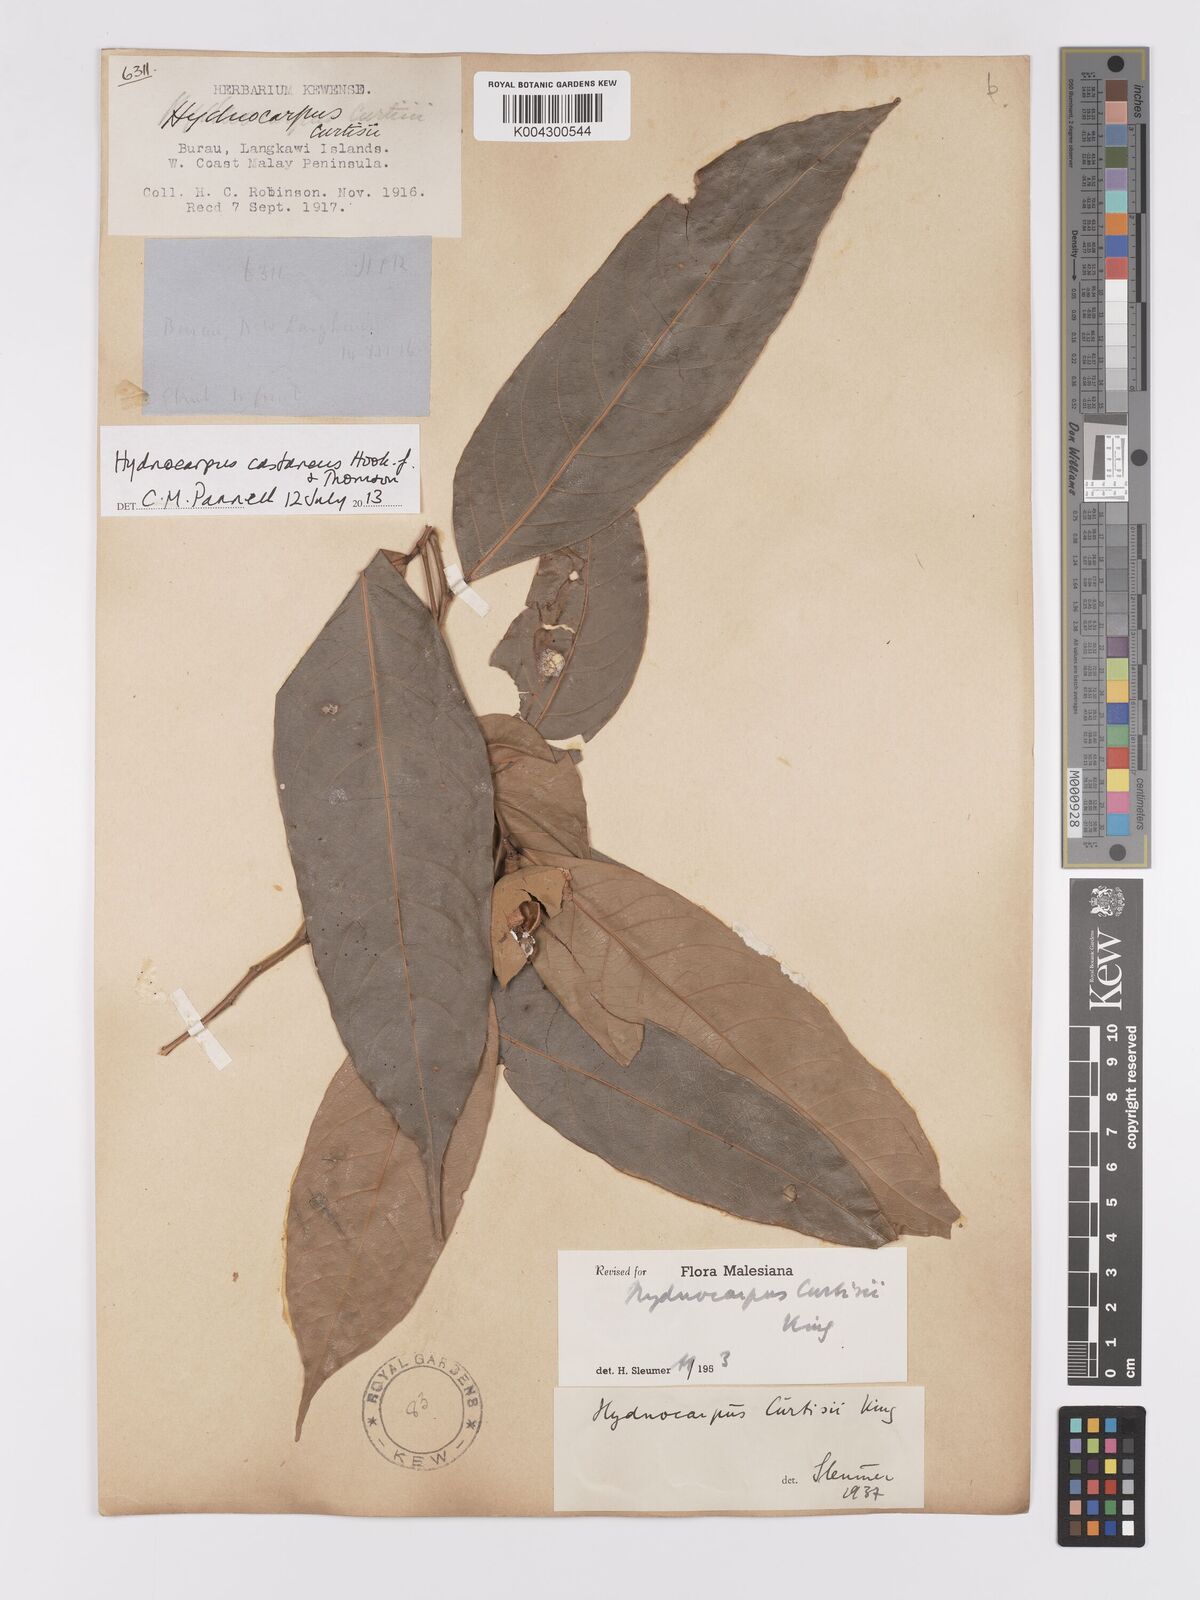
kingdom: Plantae
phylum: Tracheophyta
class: Magnoliopsida
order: Malpighiales
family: Achariaceae
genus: Hydnocarpus
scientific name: Hydnocarpus curtisii
